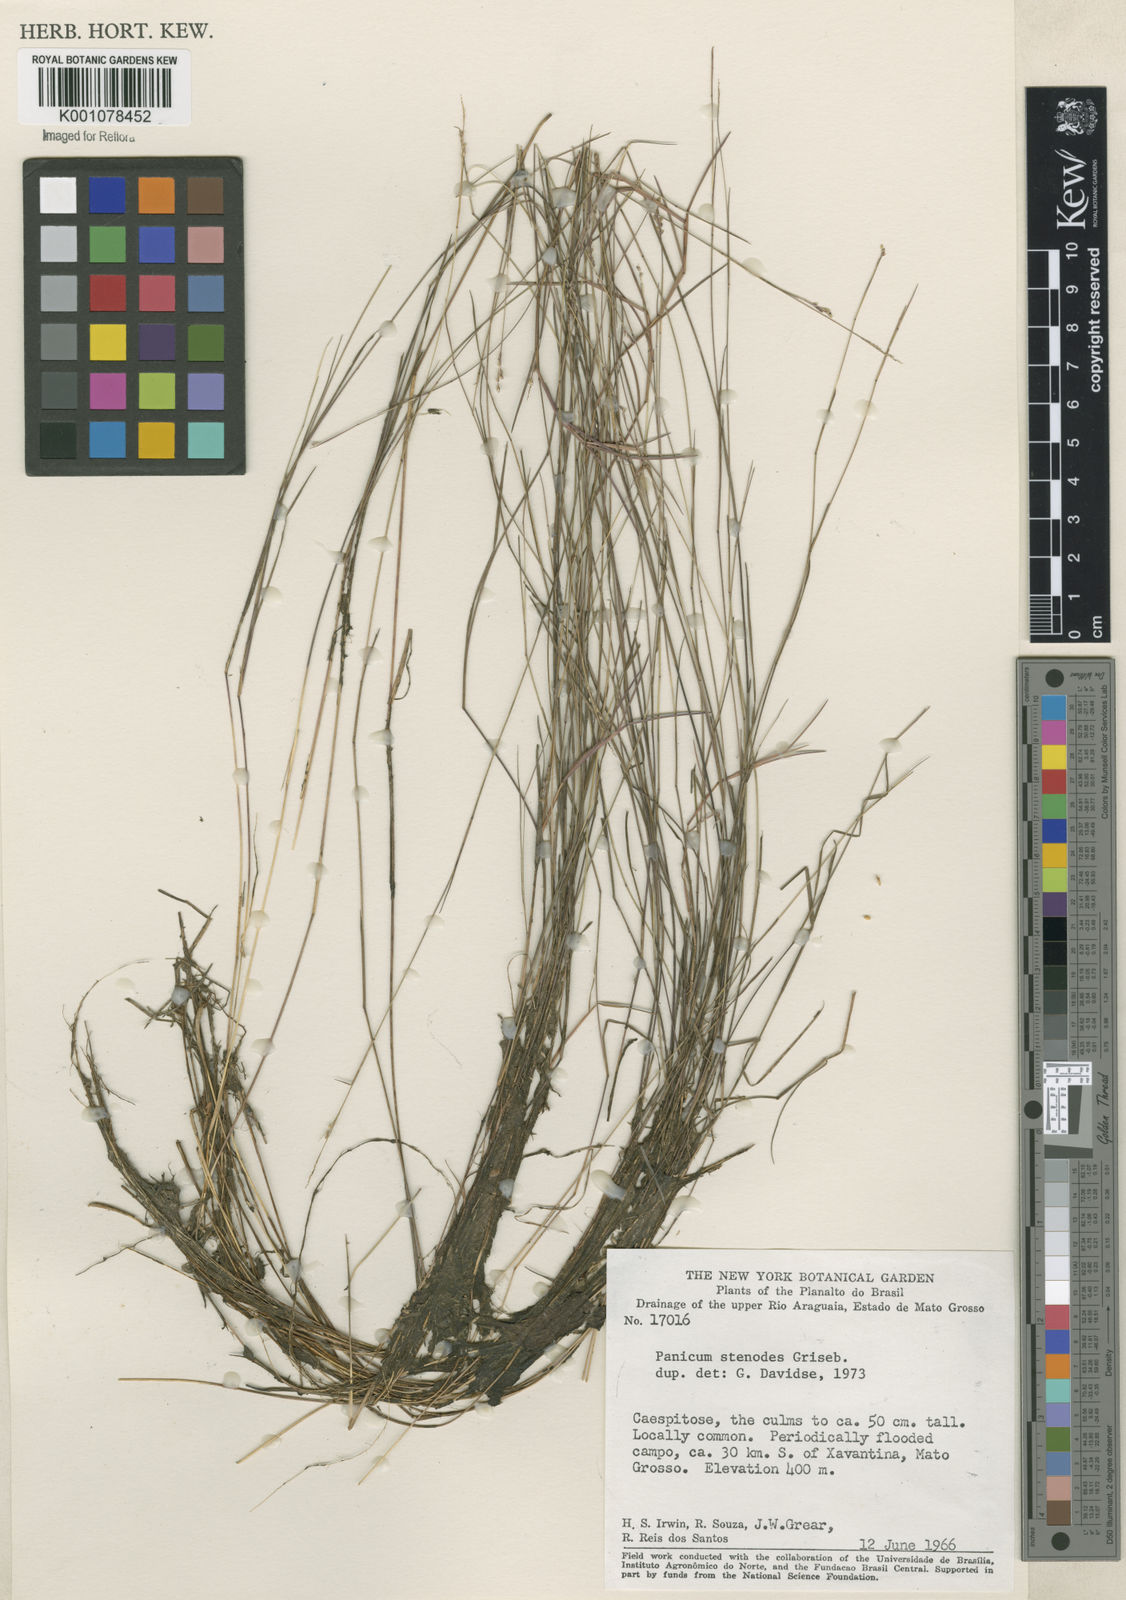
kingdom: Plantae
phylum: Tracheophyta
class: Liliopsida
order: Poales
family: Poaceae
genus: Coleataenia
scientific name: Coleataenia stenodes
